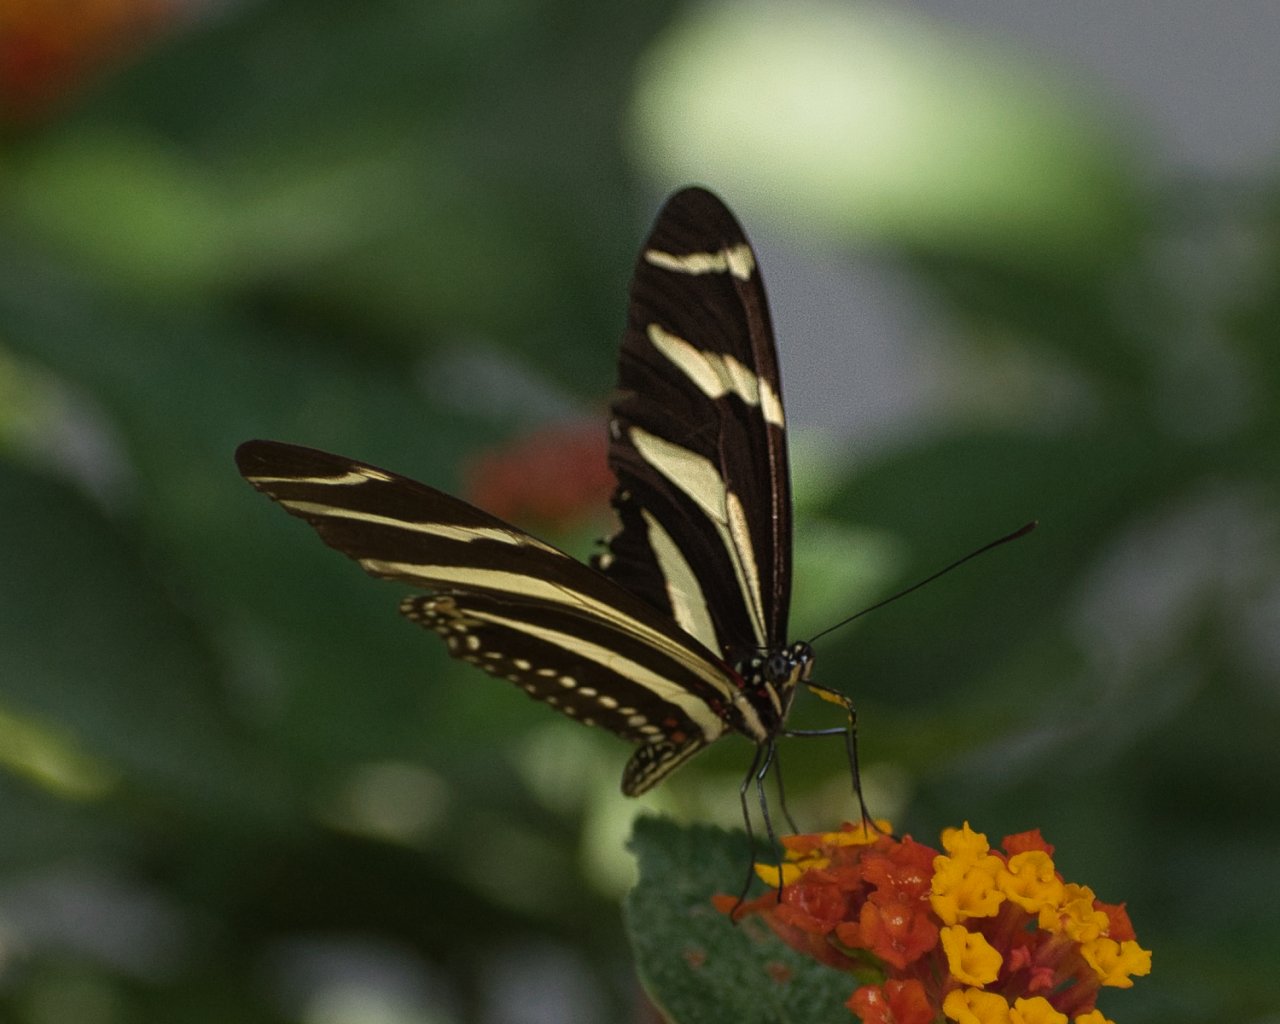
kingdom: Animalia
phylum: Arthropoda
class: Insecta
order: Lepidoptera
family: Nymphalidae
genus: Heliconius
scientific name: Heliconius charithonia
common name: Zebra Longwing
